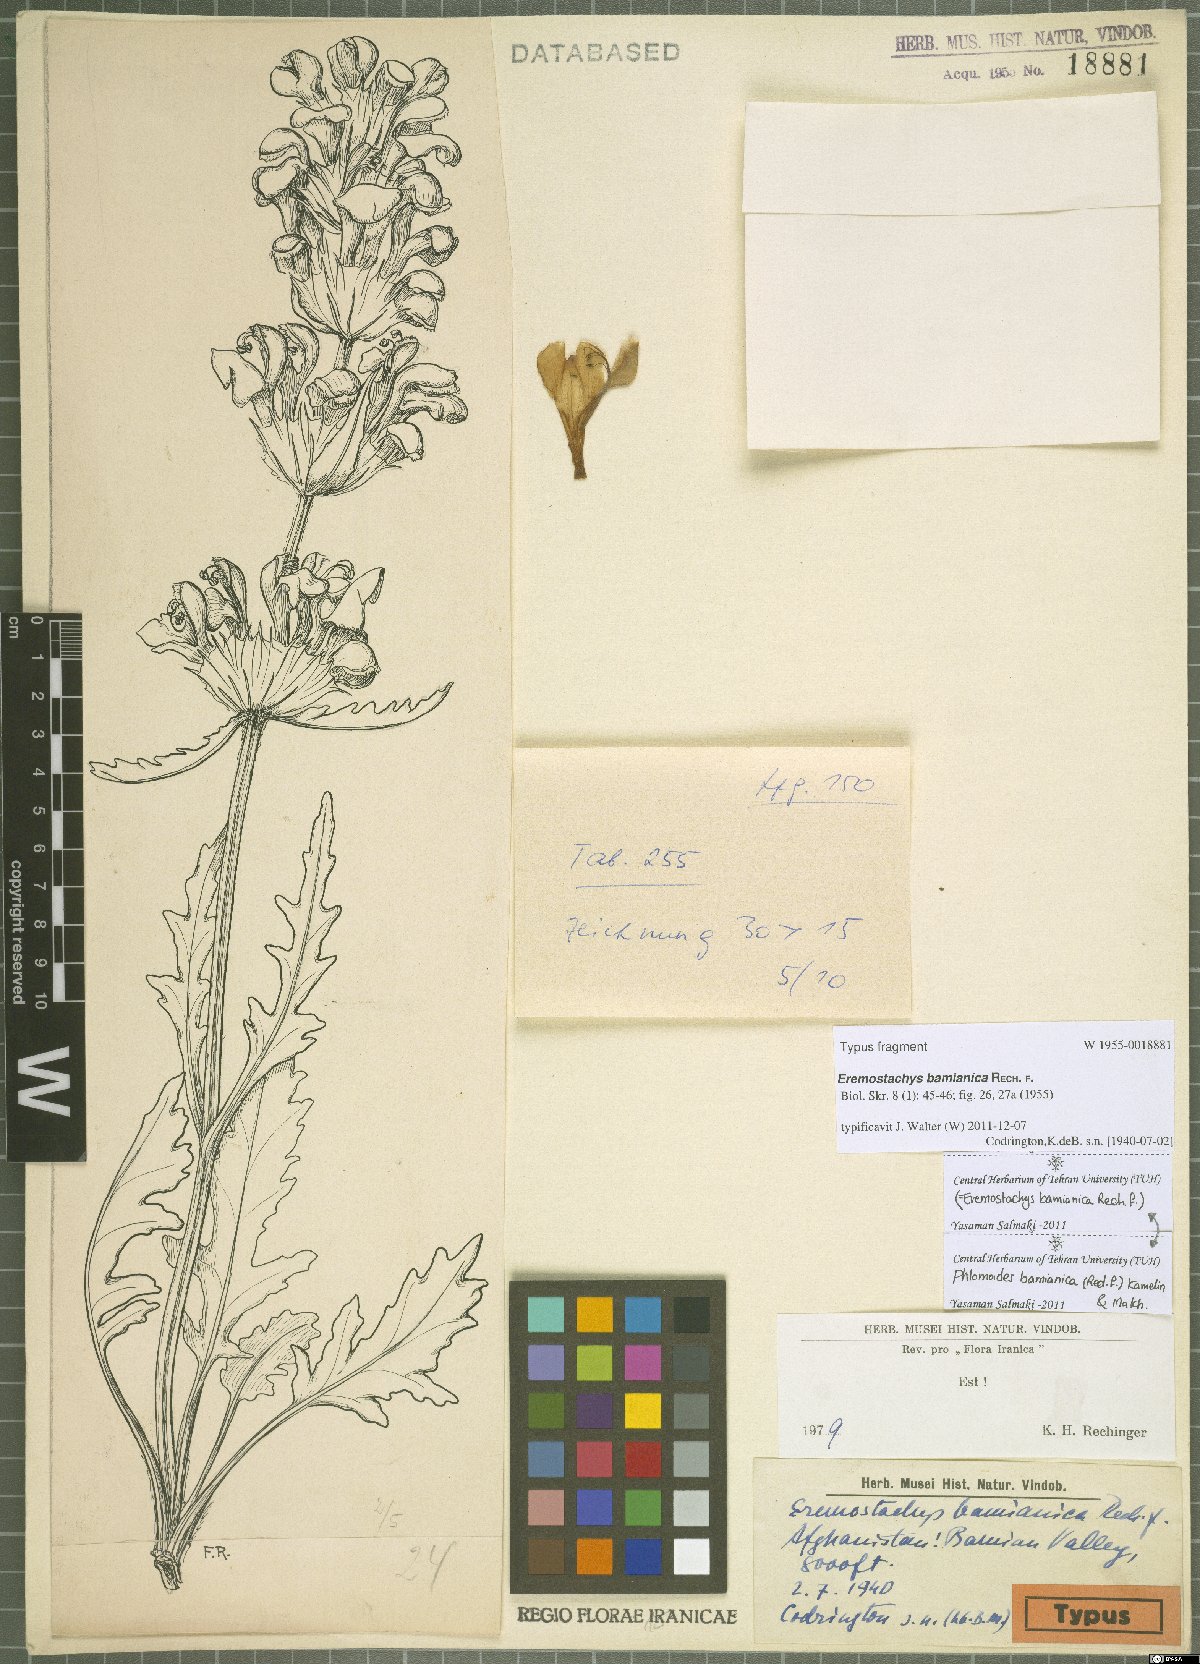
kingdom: Plantae
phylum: Tracheophyta
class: Magnoliopsida
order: Lamiales
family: Lamiaceae
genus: Phlomoides
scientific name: Phlomoides bamianica
